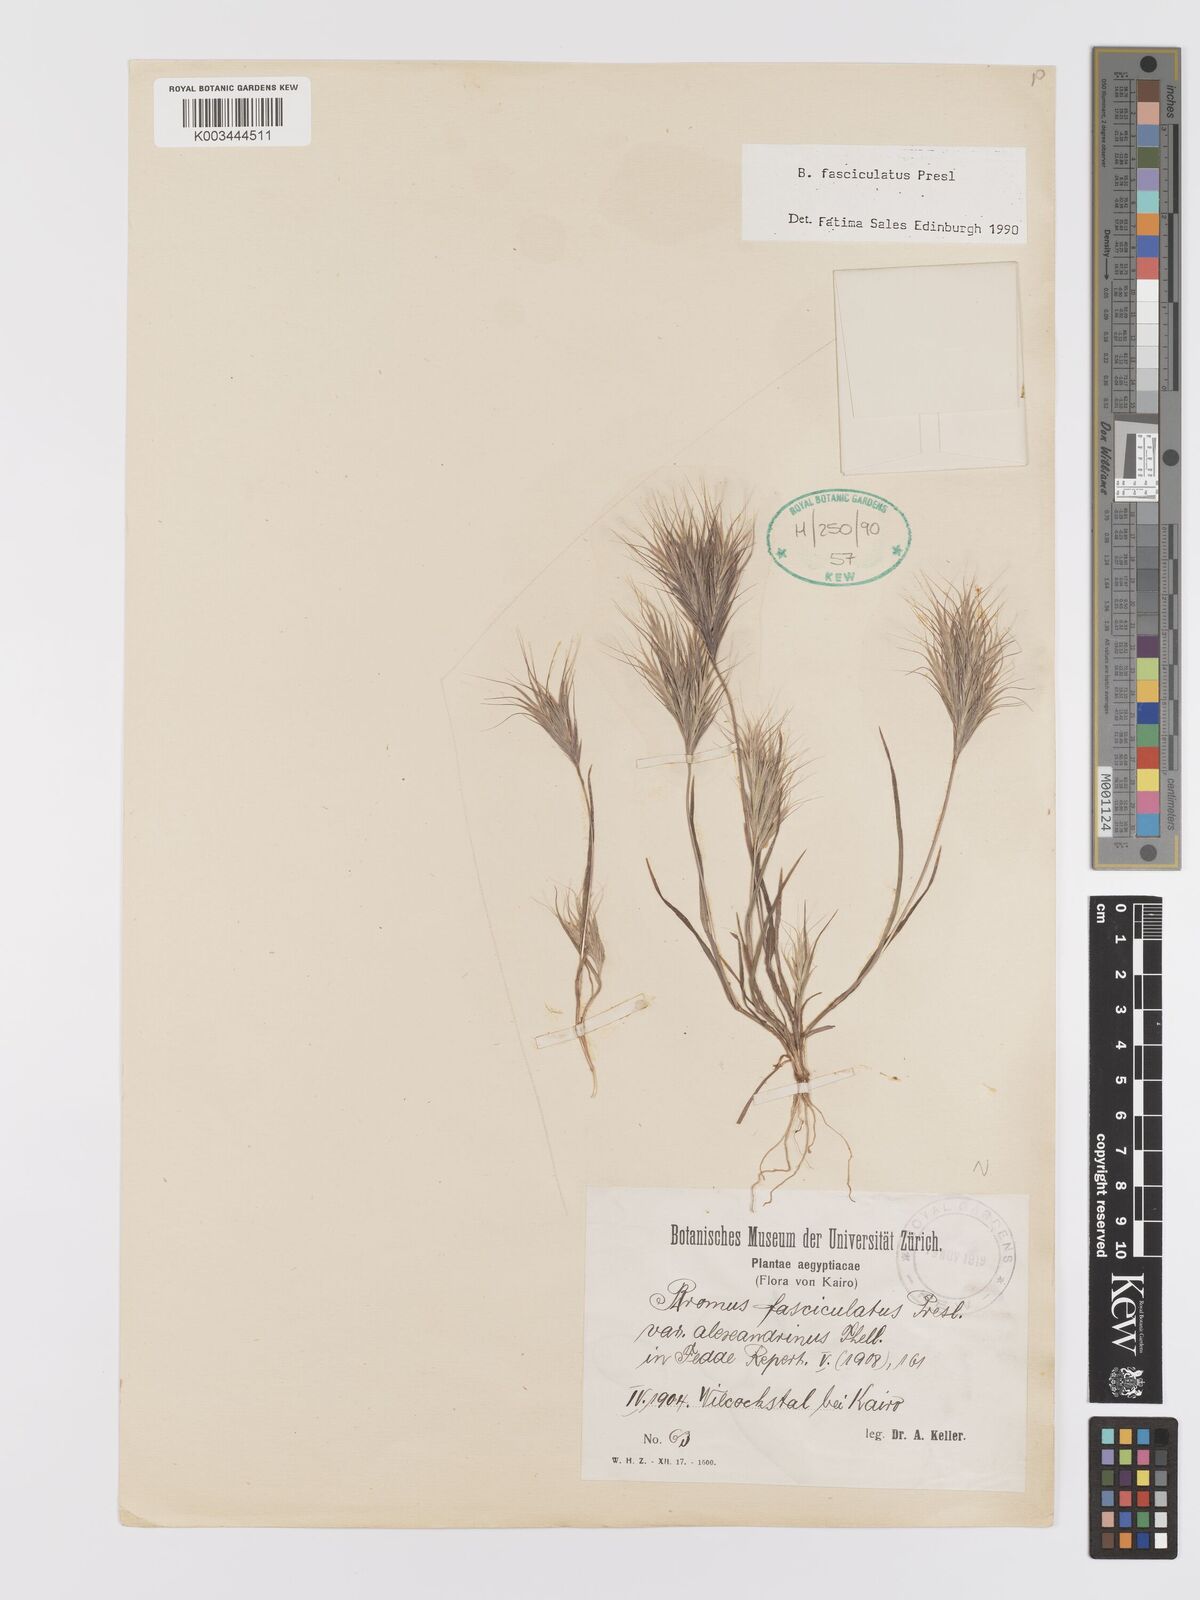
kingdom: Plantae
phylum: Tracheophyta
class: Liliopsida
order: Poales
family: Poaceae
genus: Bromus
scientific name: Bromus fasciculatus
